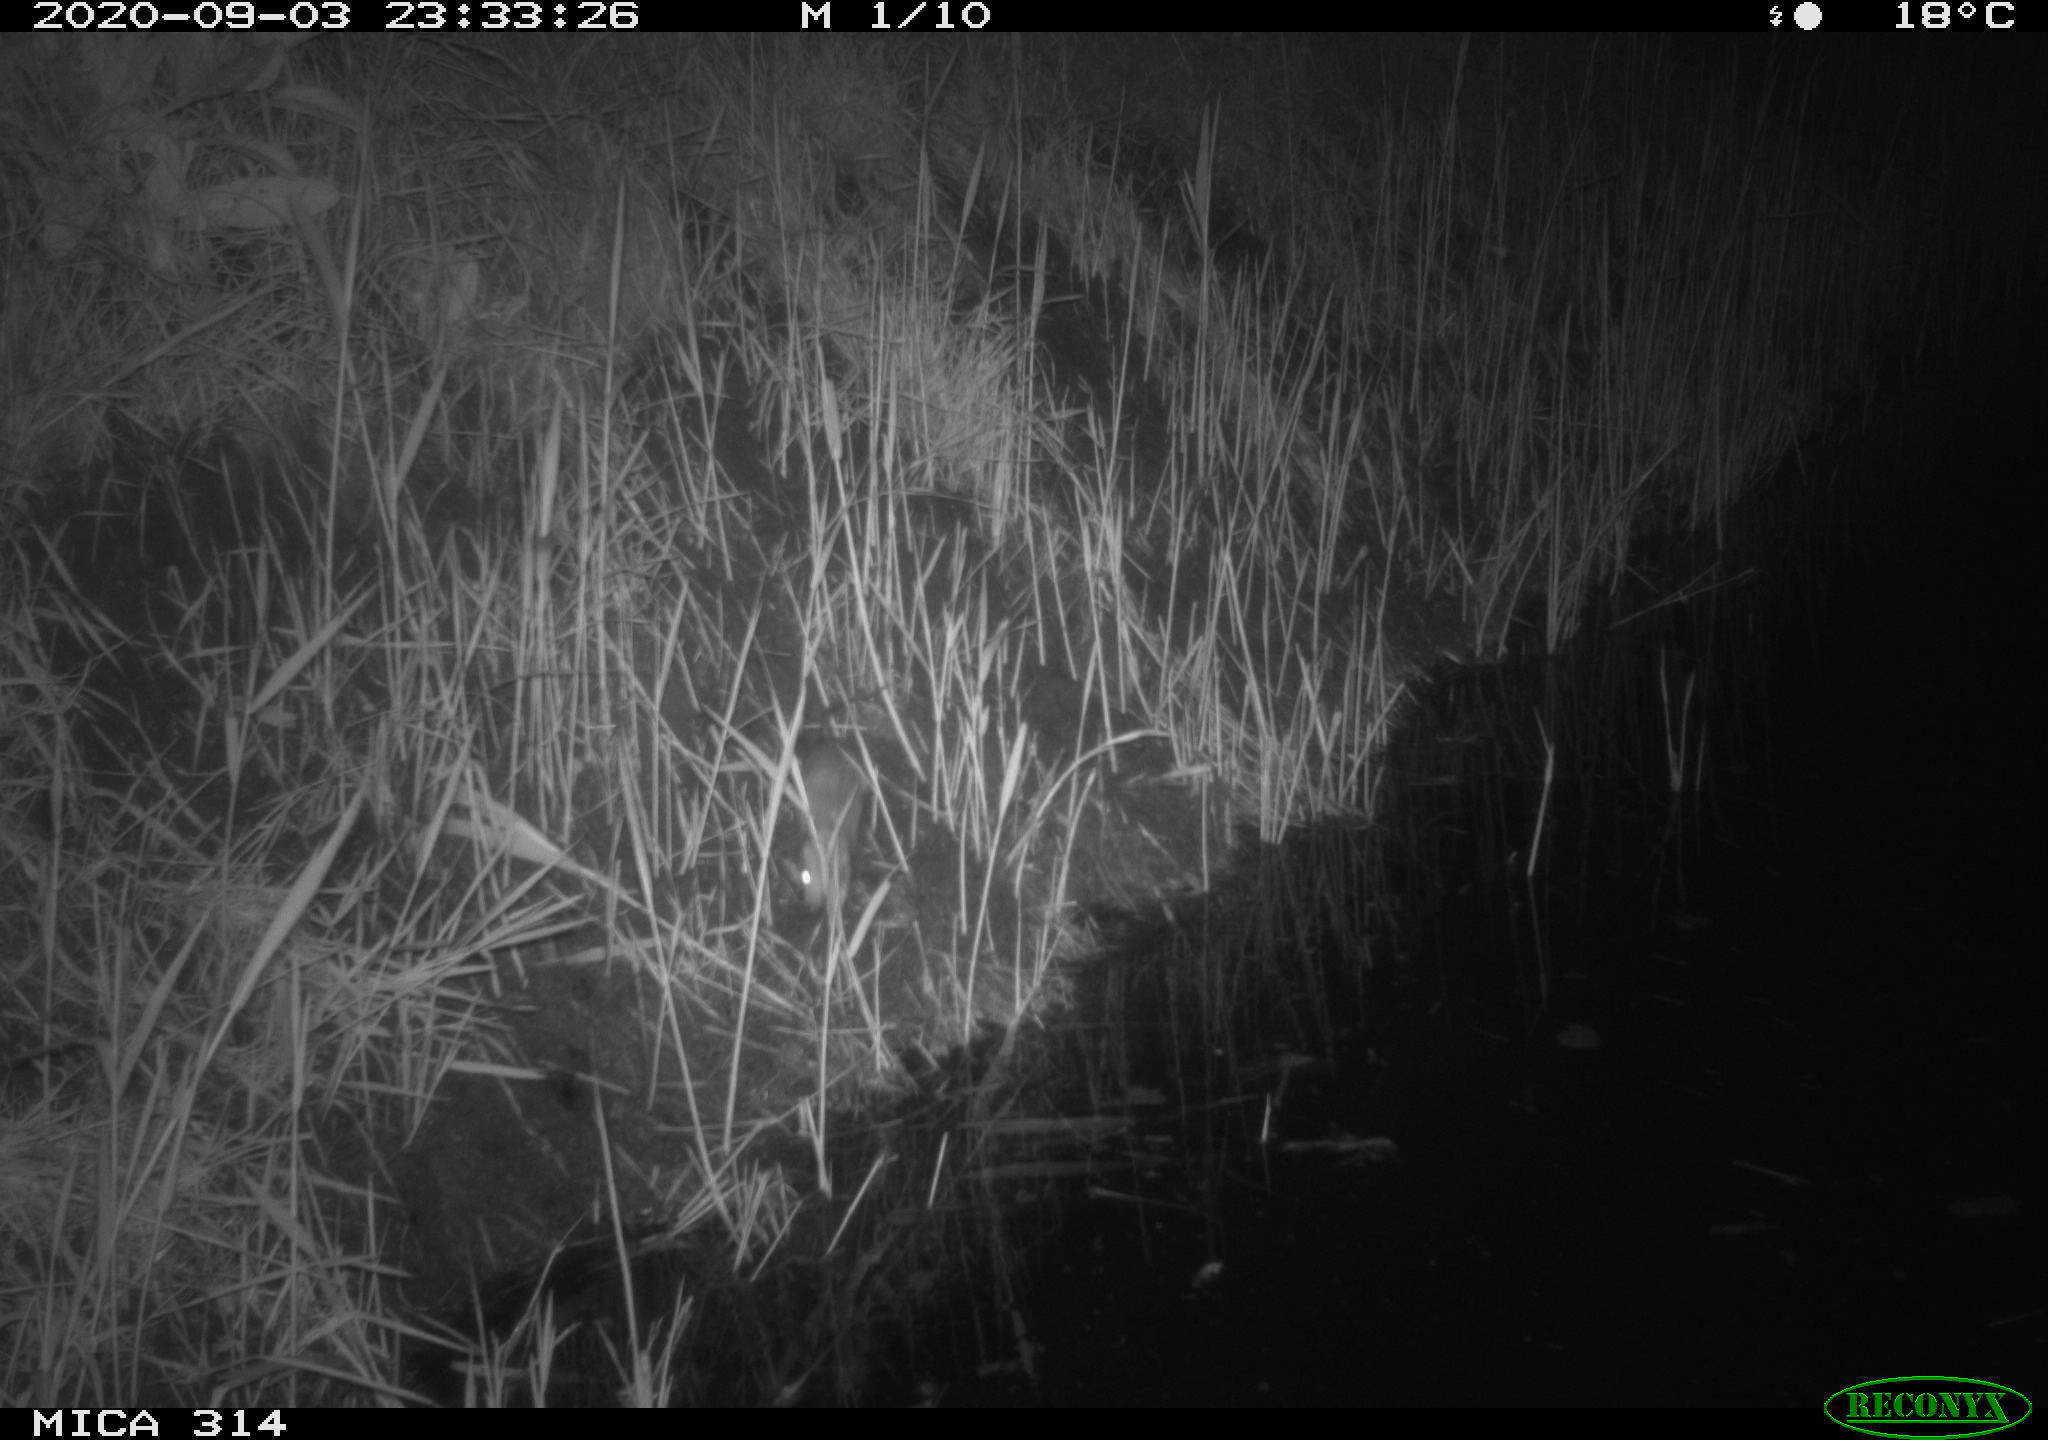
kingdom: Animalia
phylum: Chordata
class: Mammalia
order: Rodentia
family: Muridae
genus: Rattus
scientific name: Rattus norvegicus
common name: Brown rat
